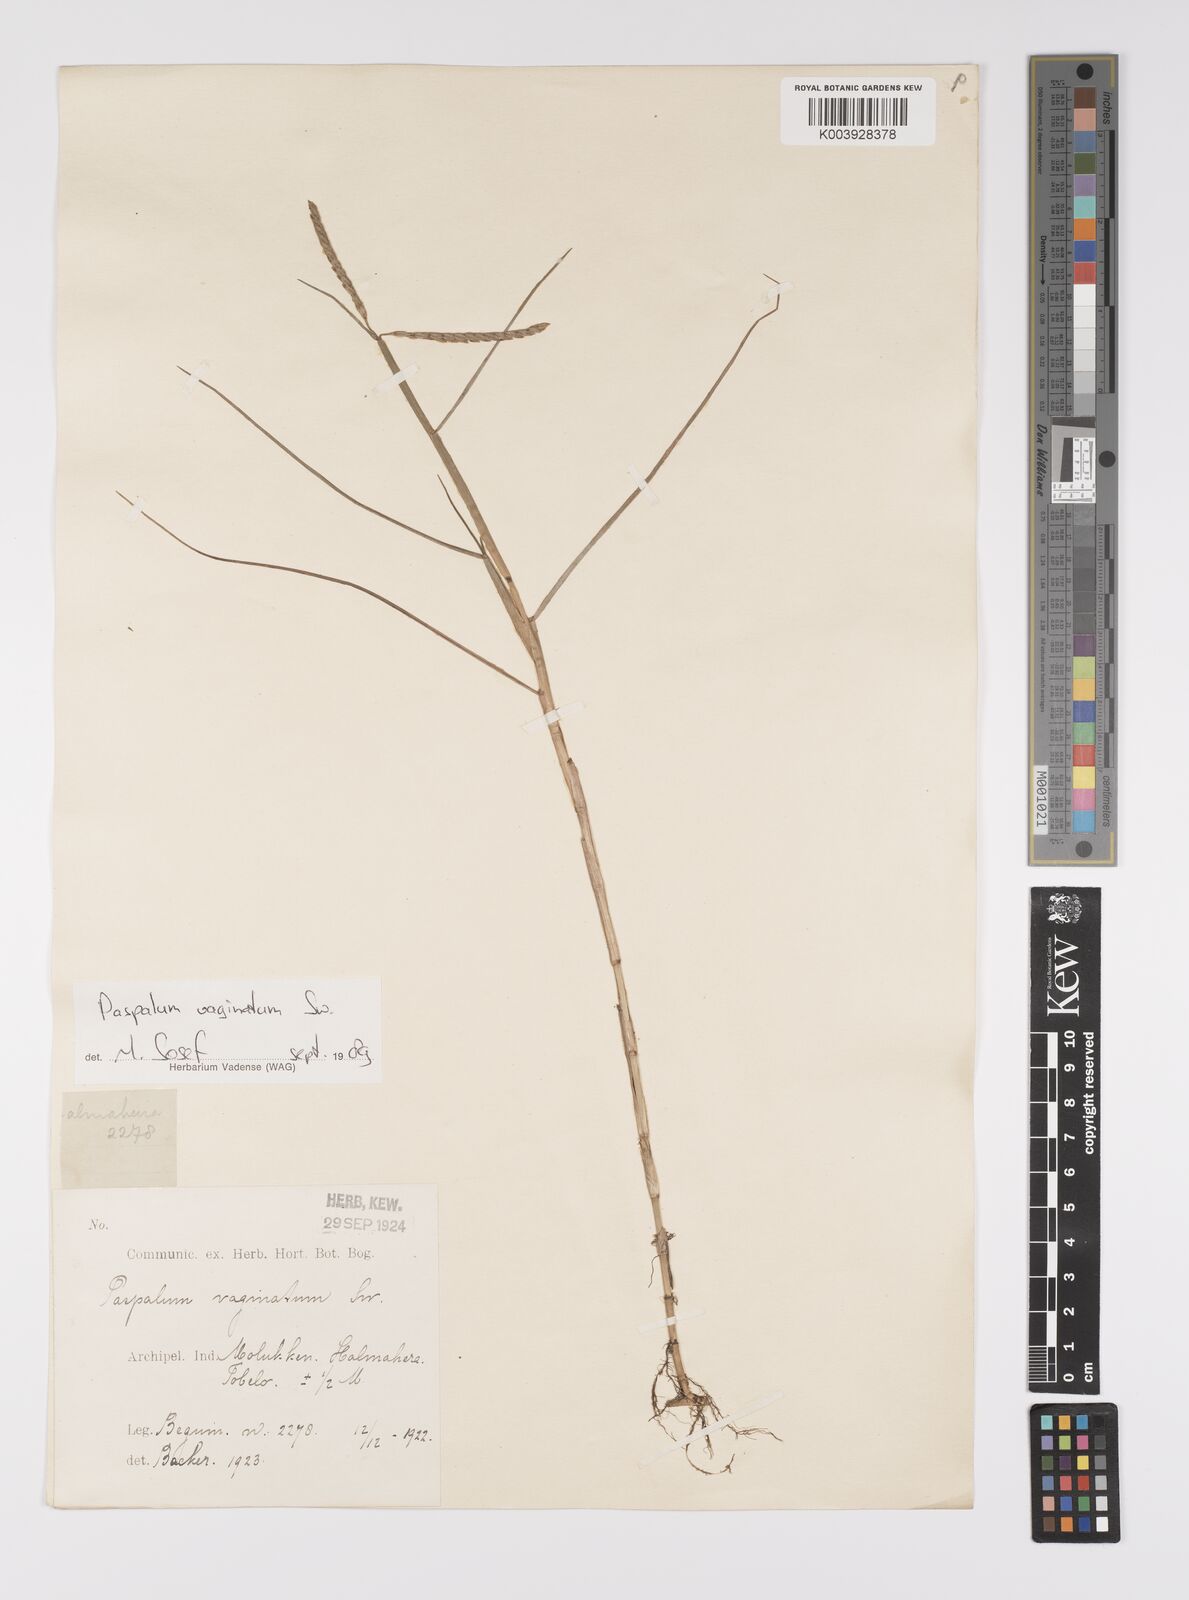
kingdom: Plantae
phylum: Tracheophyta
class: Liliopsida
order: Poales
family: Poaceae
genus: Paspalum
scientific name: Paspalum vaginatum
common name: Seashore paspalum
